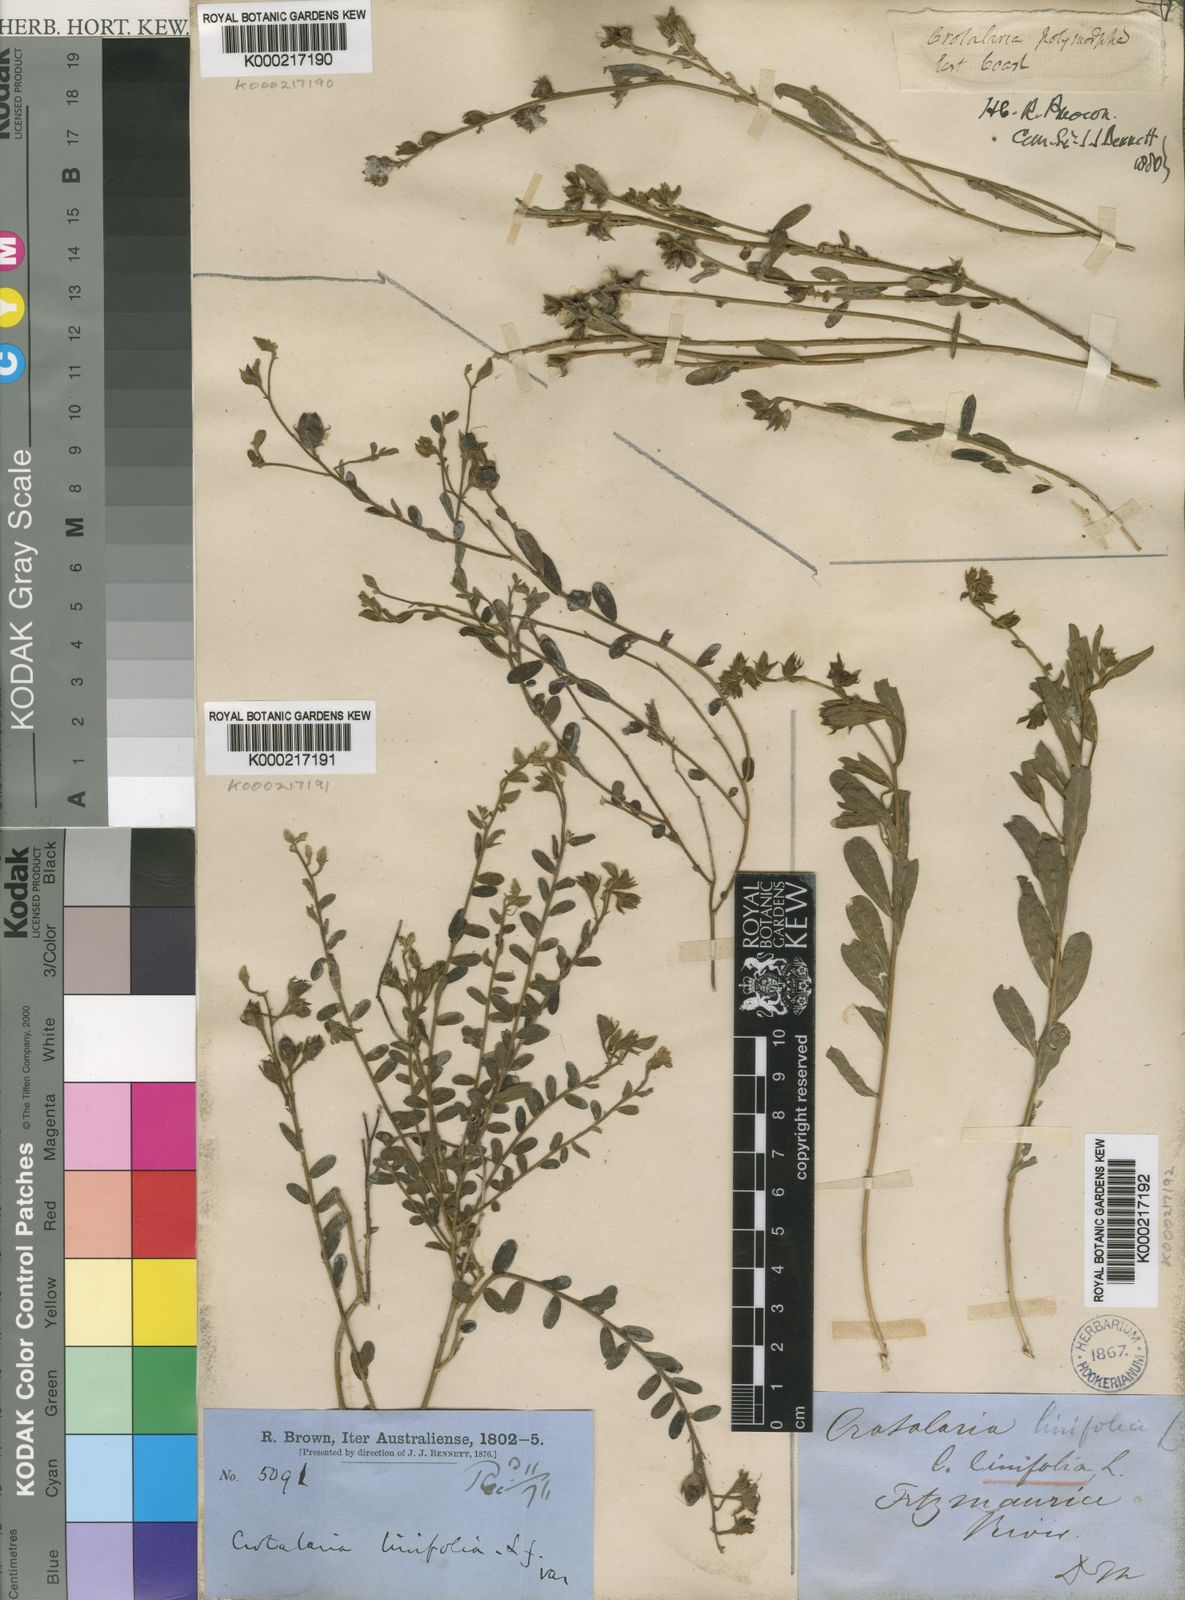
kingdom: Plantae
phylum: Tracheophyta
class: Magnoliopsida
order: Fabales
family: Fabaceae
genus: Crotalaria
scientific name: Crotalaria linifolia
